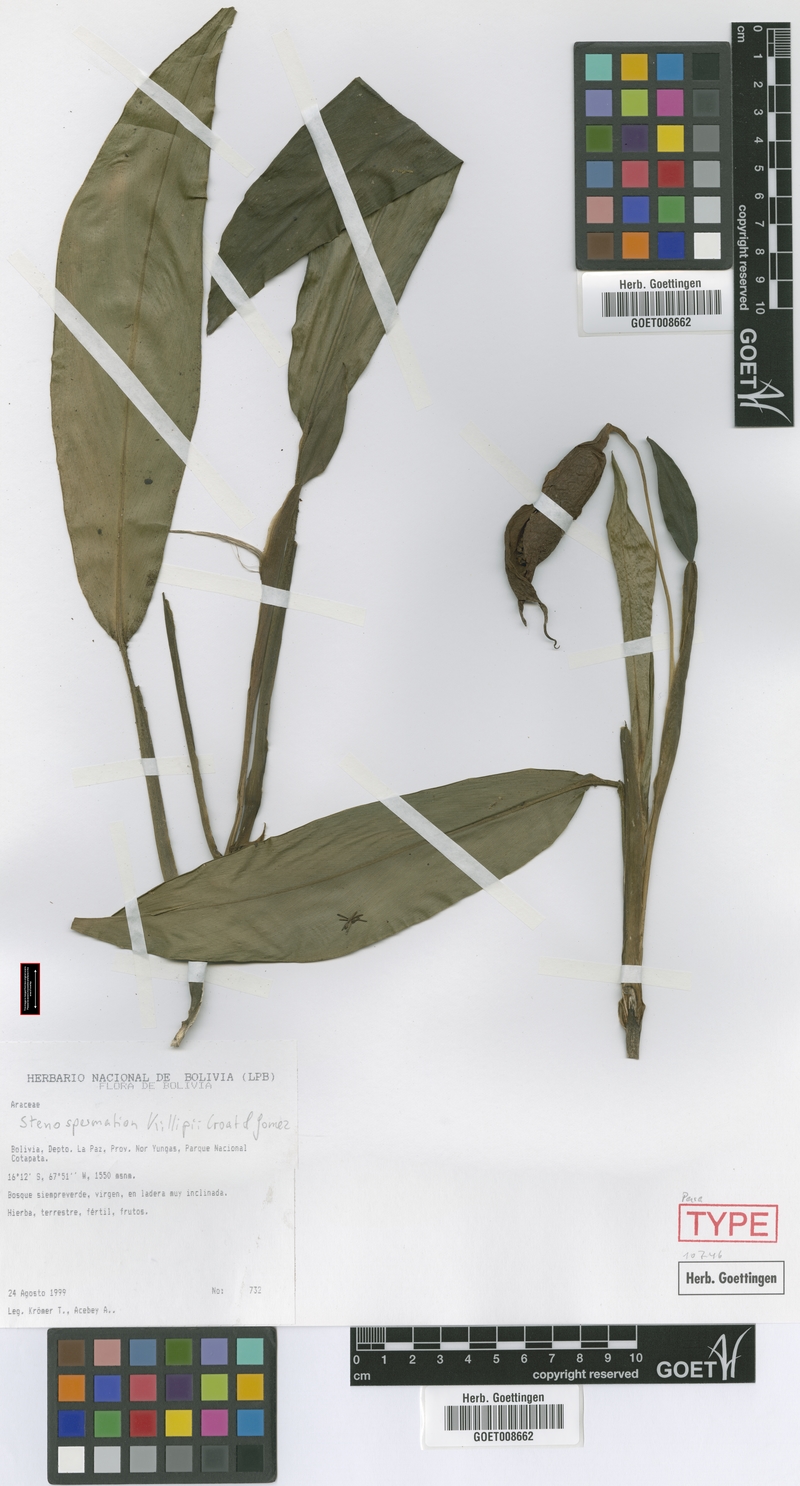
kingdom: Plantae
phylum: Tracheophyta
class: Liliopsida
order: Alismatales
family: Araceae
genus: Stenospermation
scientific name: Stenospermation zeacarpium
